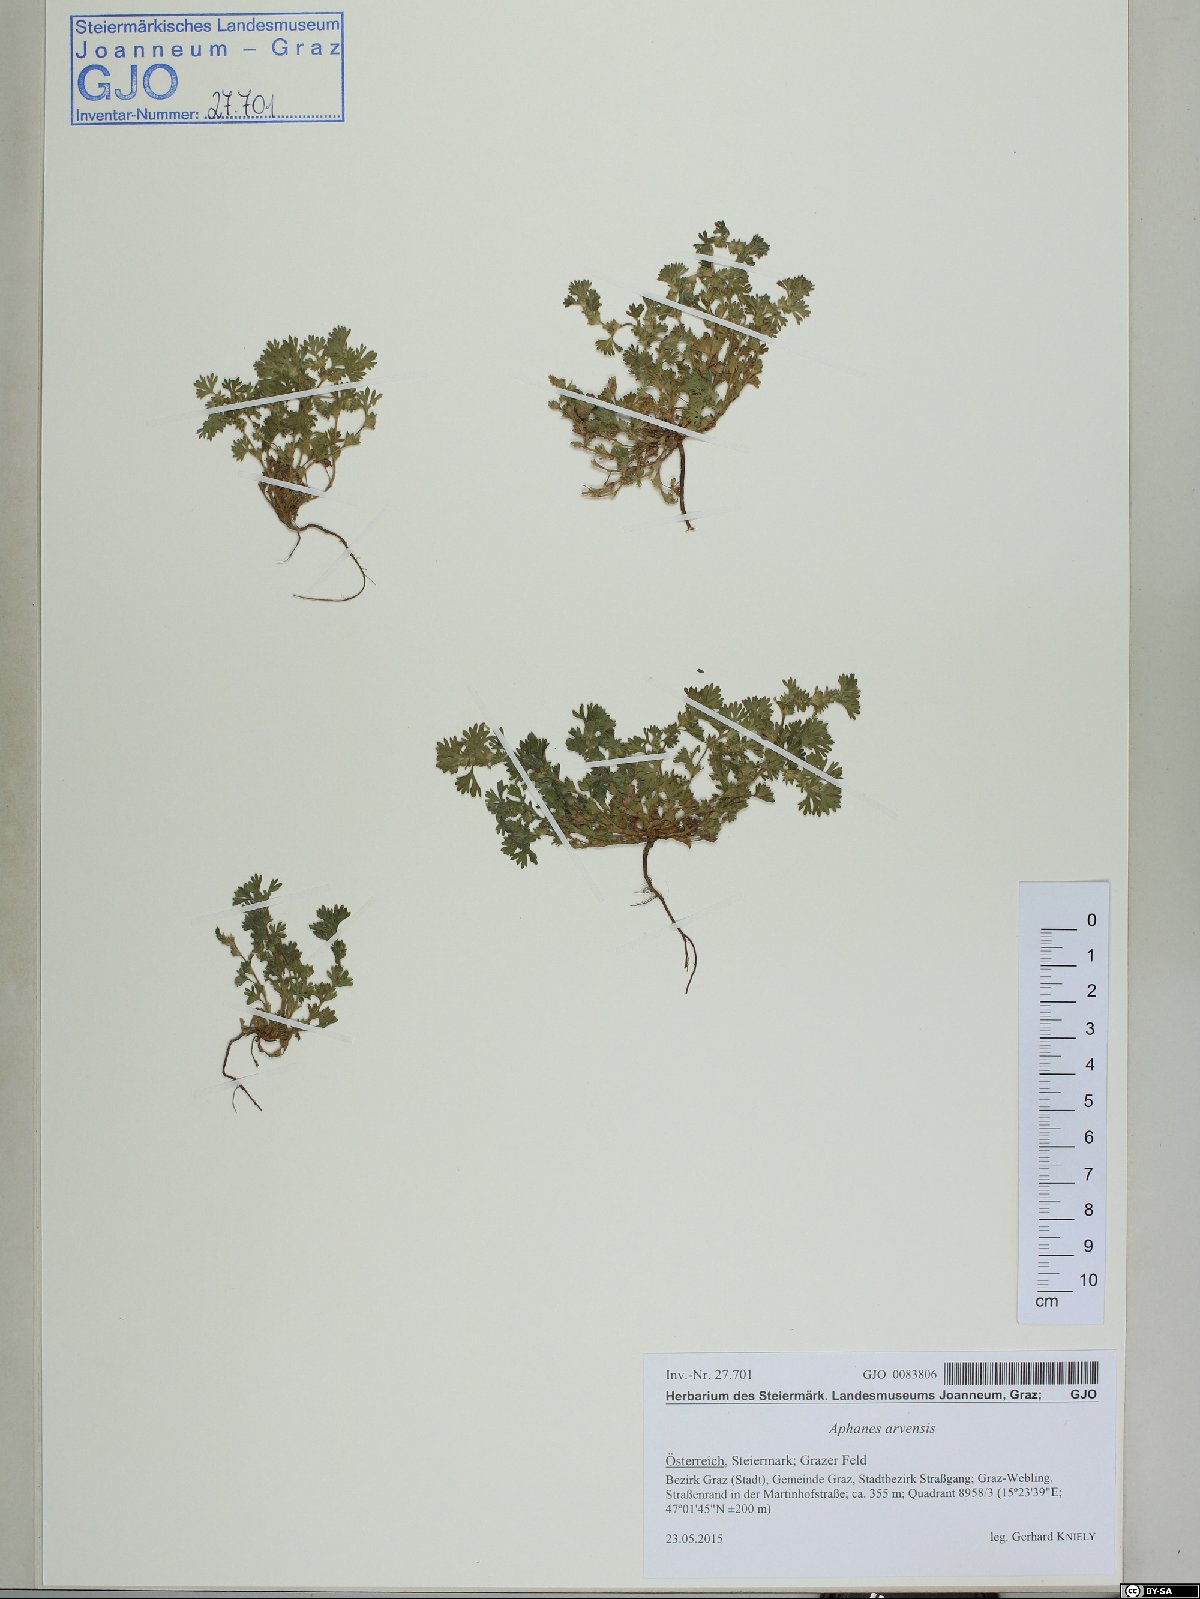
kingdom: Plantae
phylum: Tracheophyta
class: Magnoliopsida
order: Rosales
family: Rosaceae
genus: Aphanes
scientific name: Aphanes arvensis
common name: Parsley-piert
